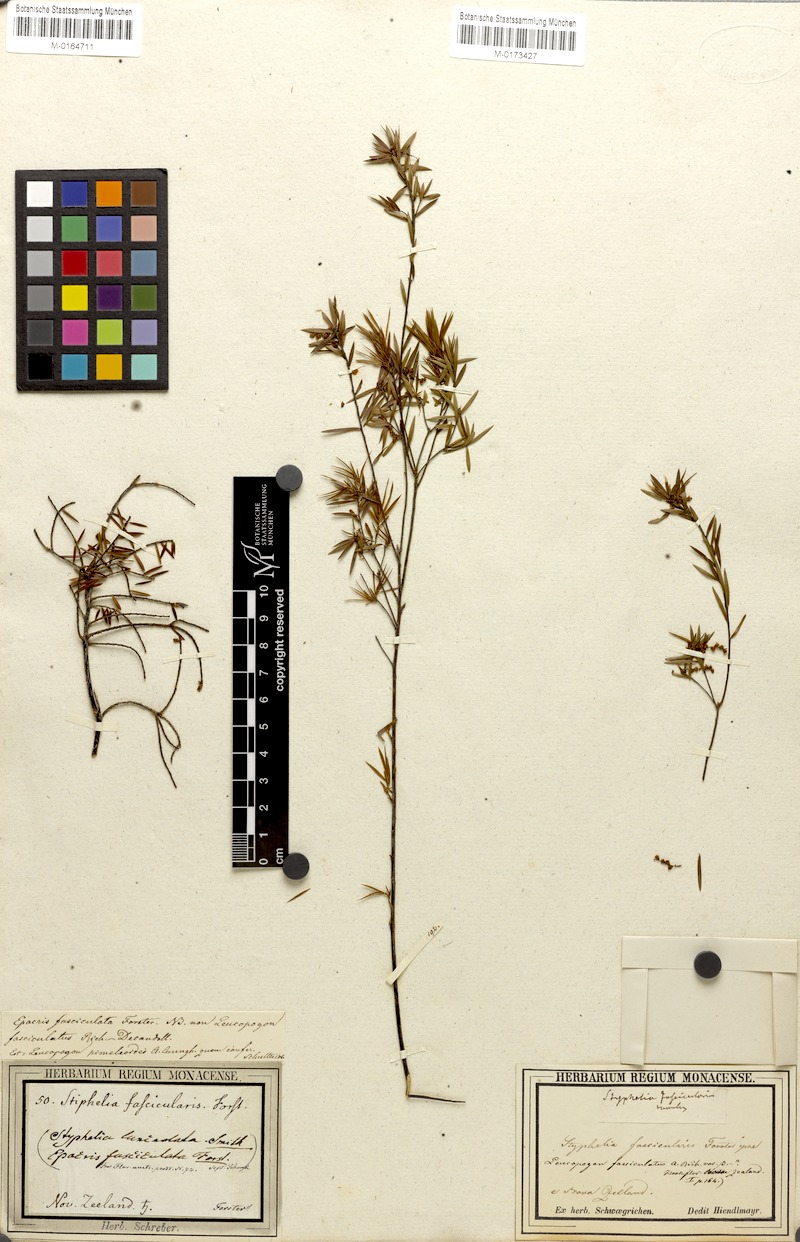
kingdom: Plantae
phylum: Tracheophyta
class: Magnoliopsida
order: Ericales
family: Ericaceae
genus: Leucopogon
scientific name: Leucopogon fasciculatus
